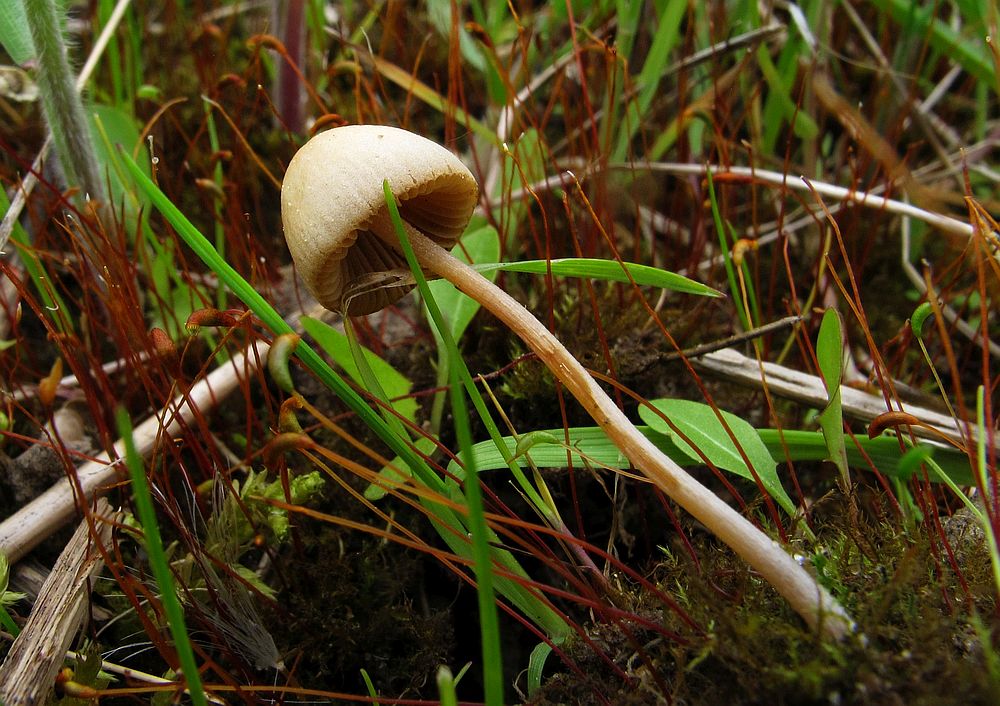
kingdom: Fungi
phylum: Basidiomycota
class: Agaricomycetes
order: Agaricales
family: Bolbitiaceae
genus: Conocybe
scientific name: Conocybe siliginea
